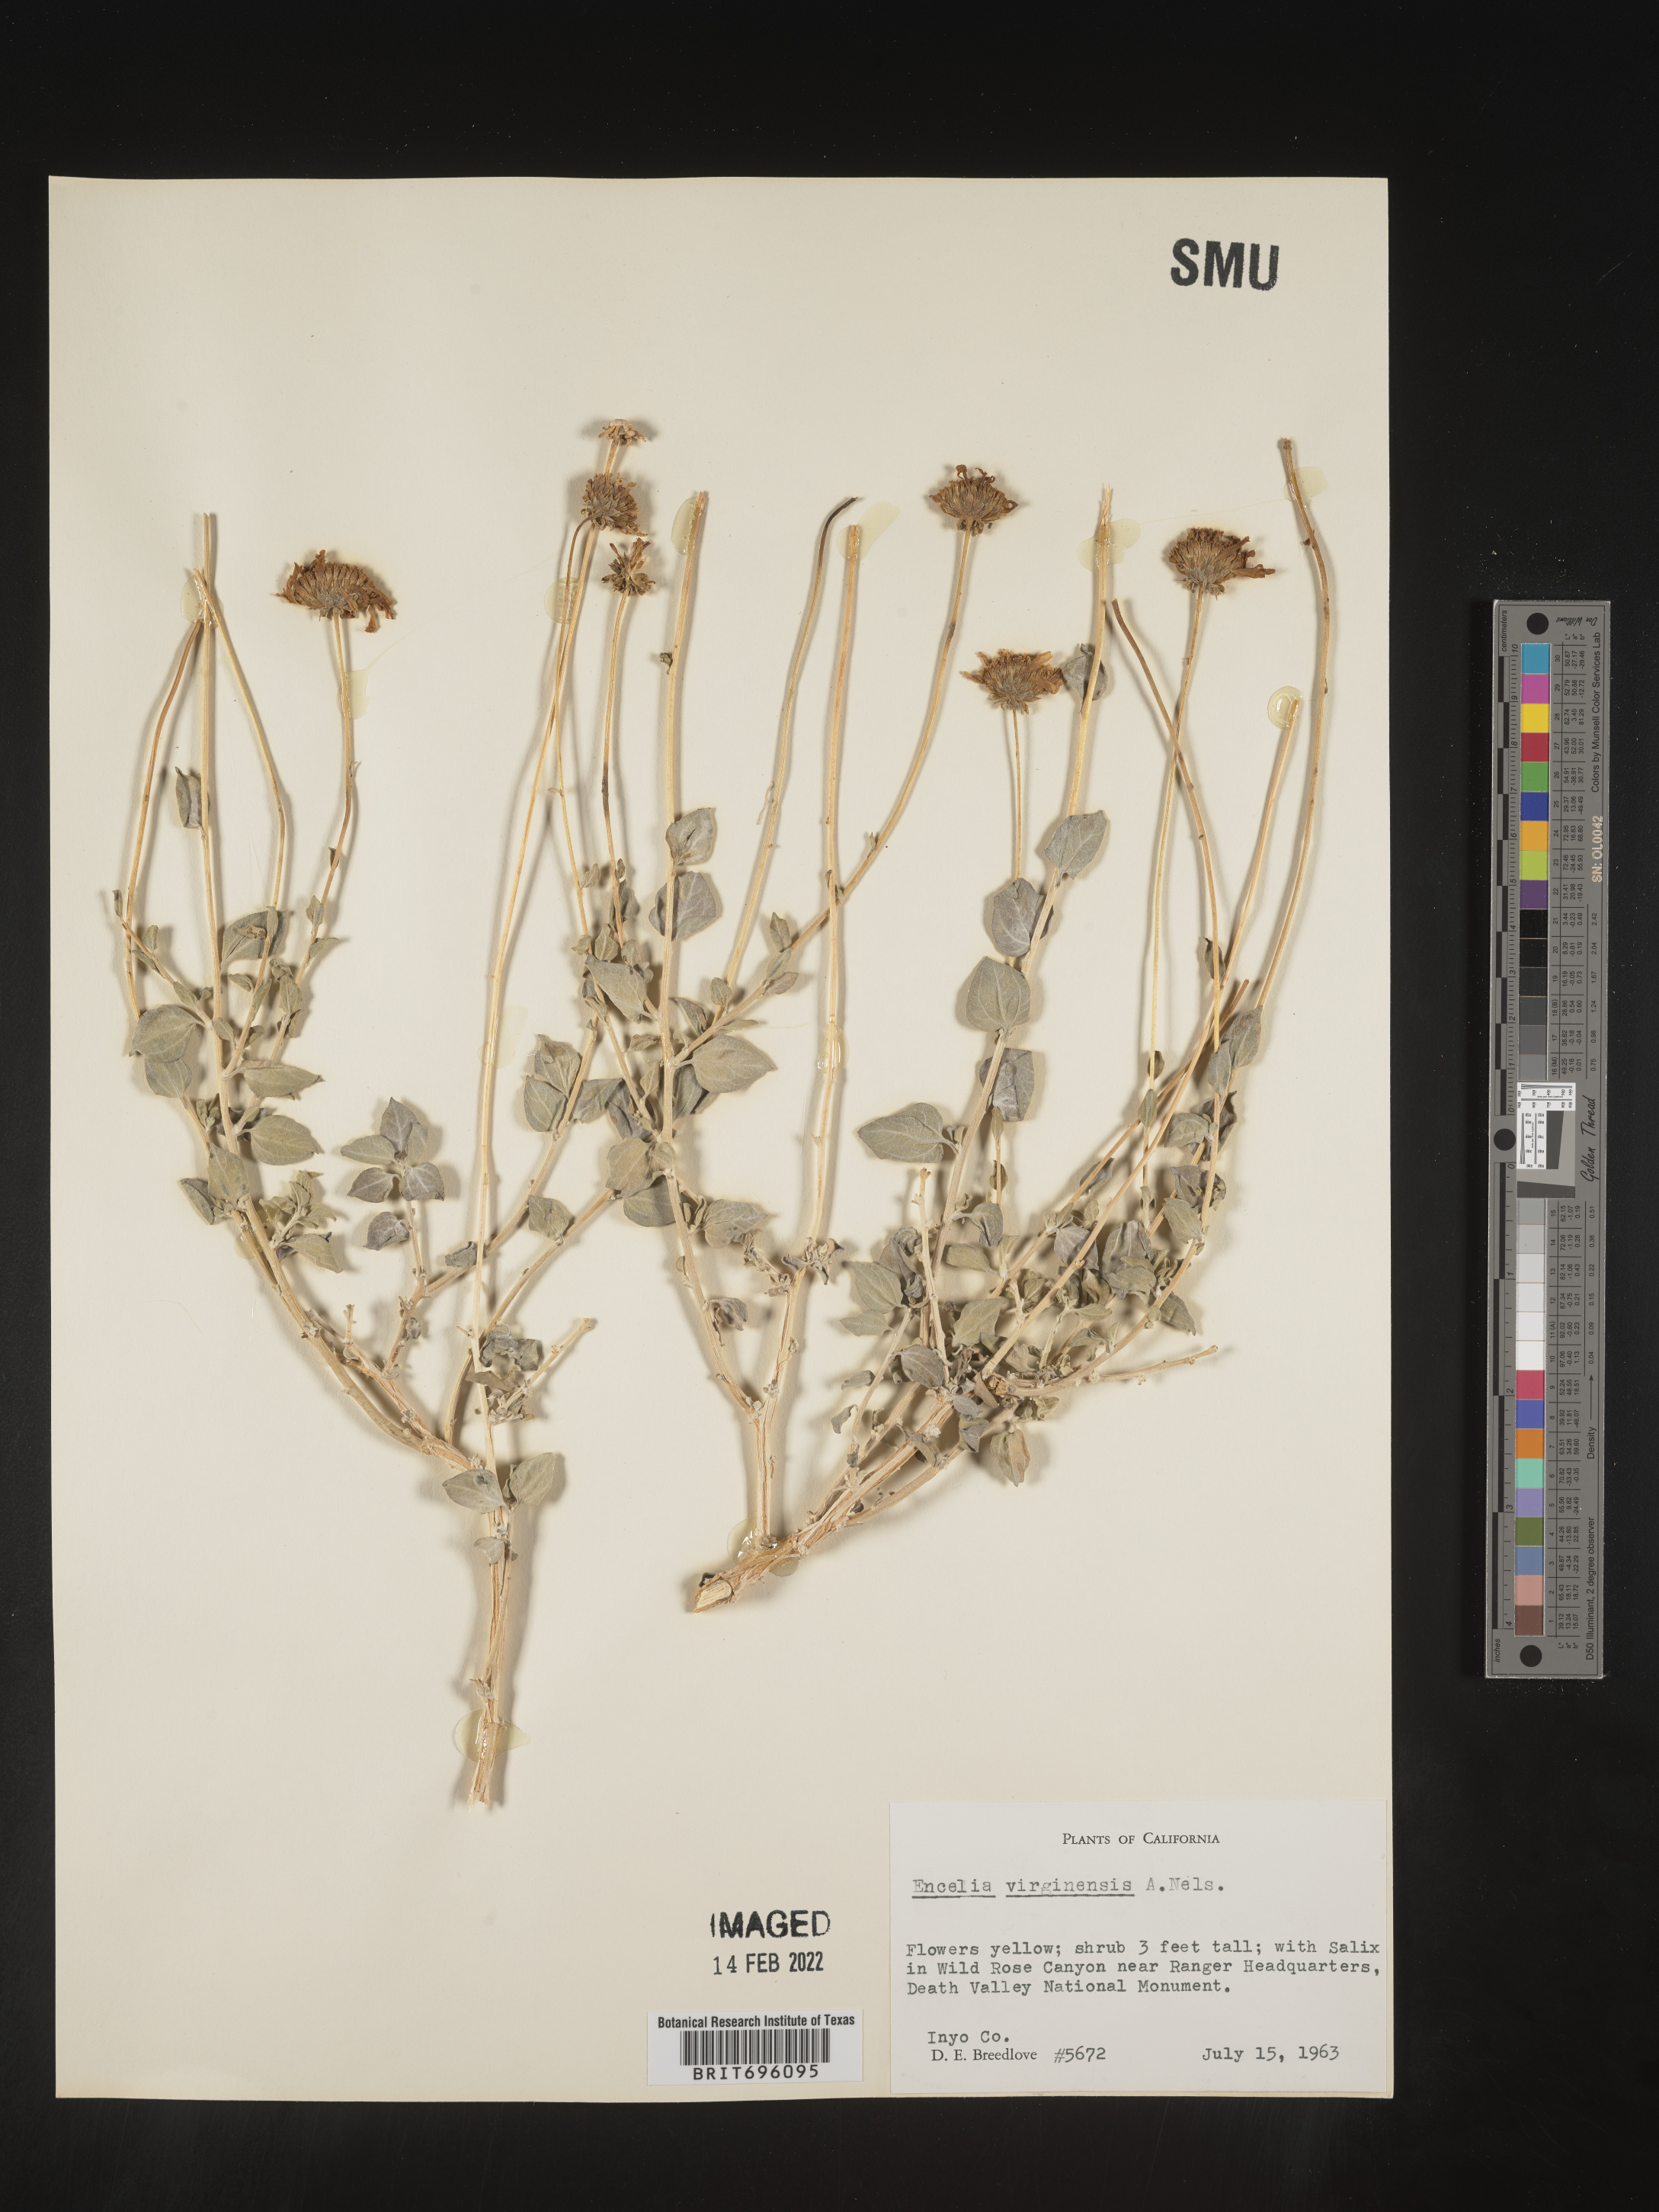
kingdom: Plantae
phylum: Tracheophyta
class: Magnoliopsida
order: Asterales
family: Asteraceae
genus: Encelia
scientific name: Encelia virginensis
